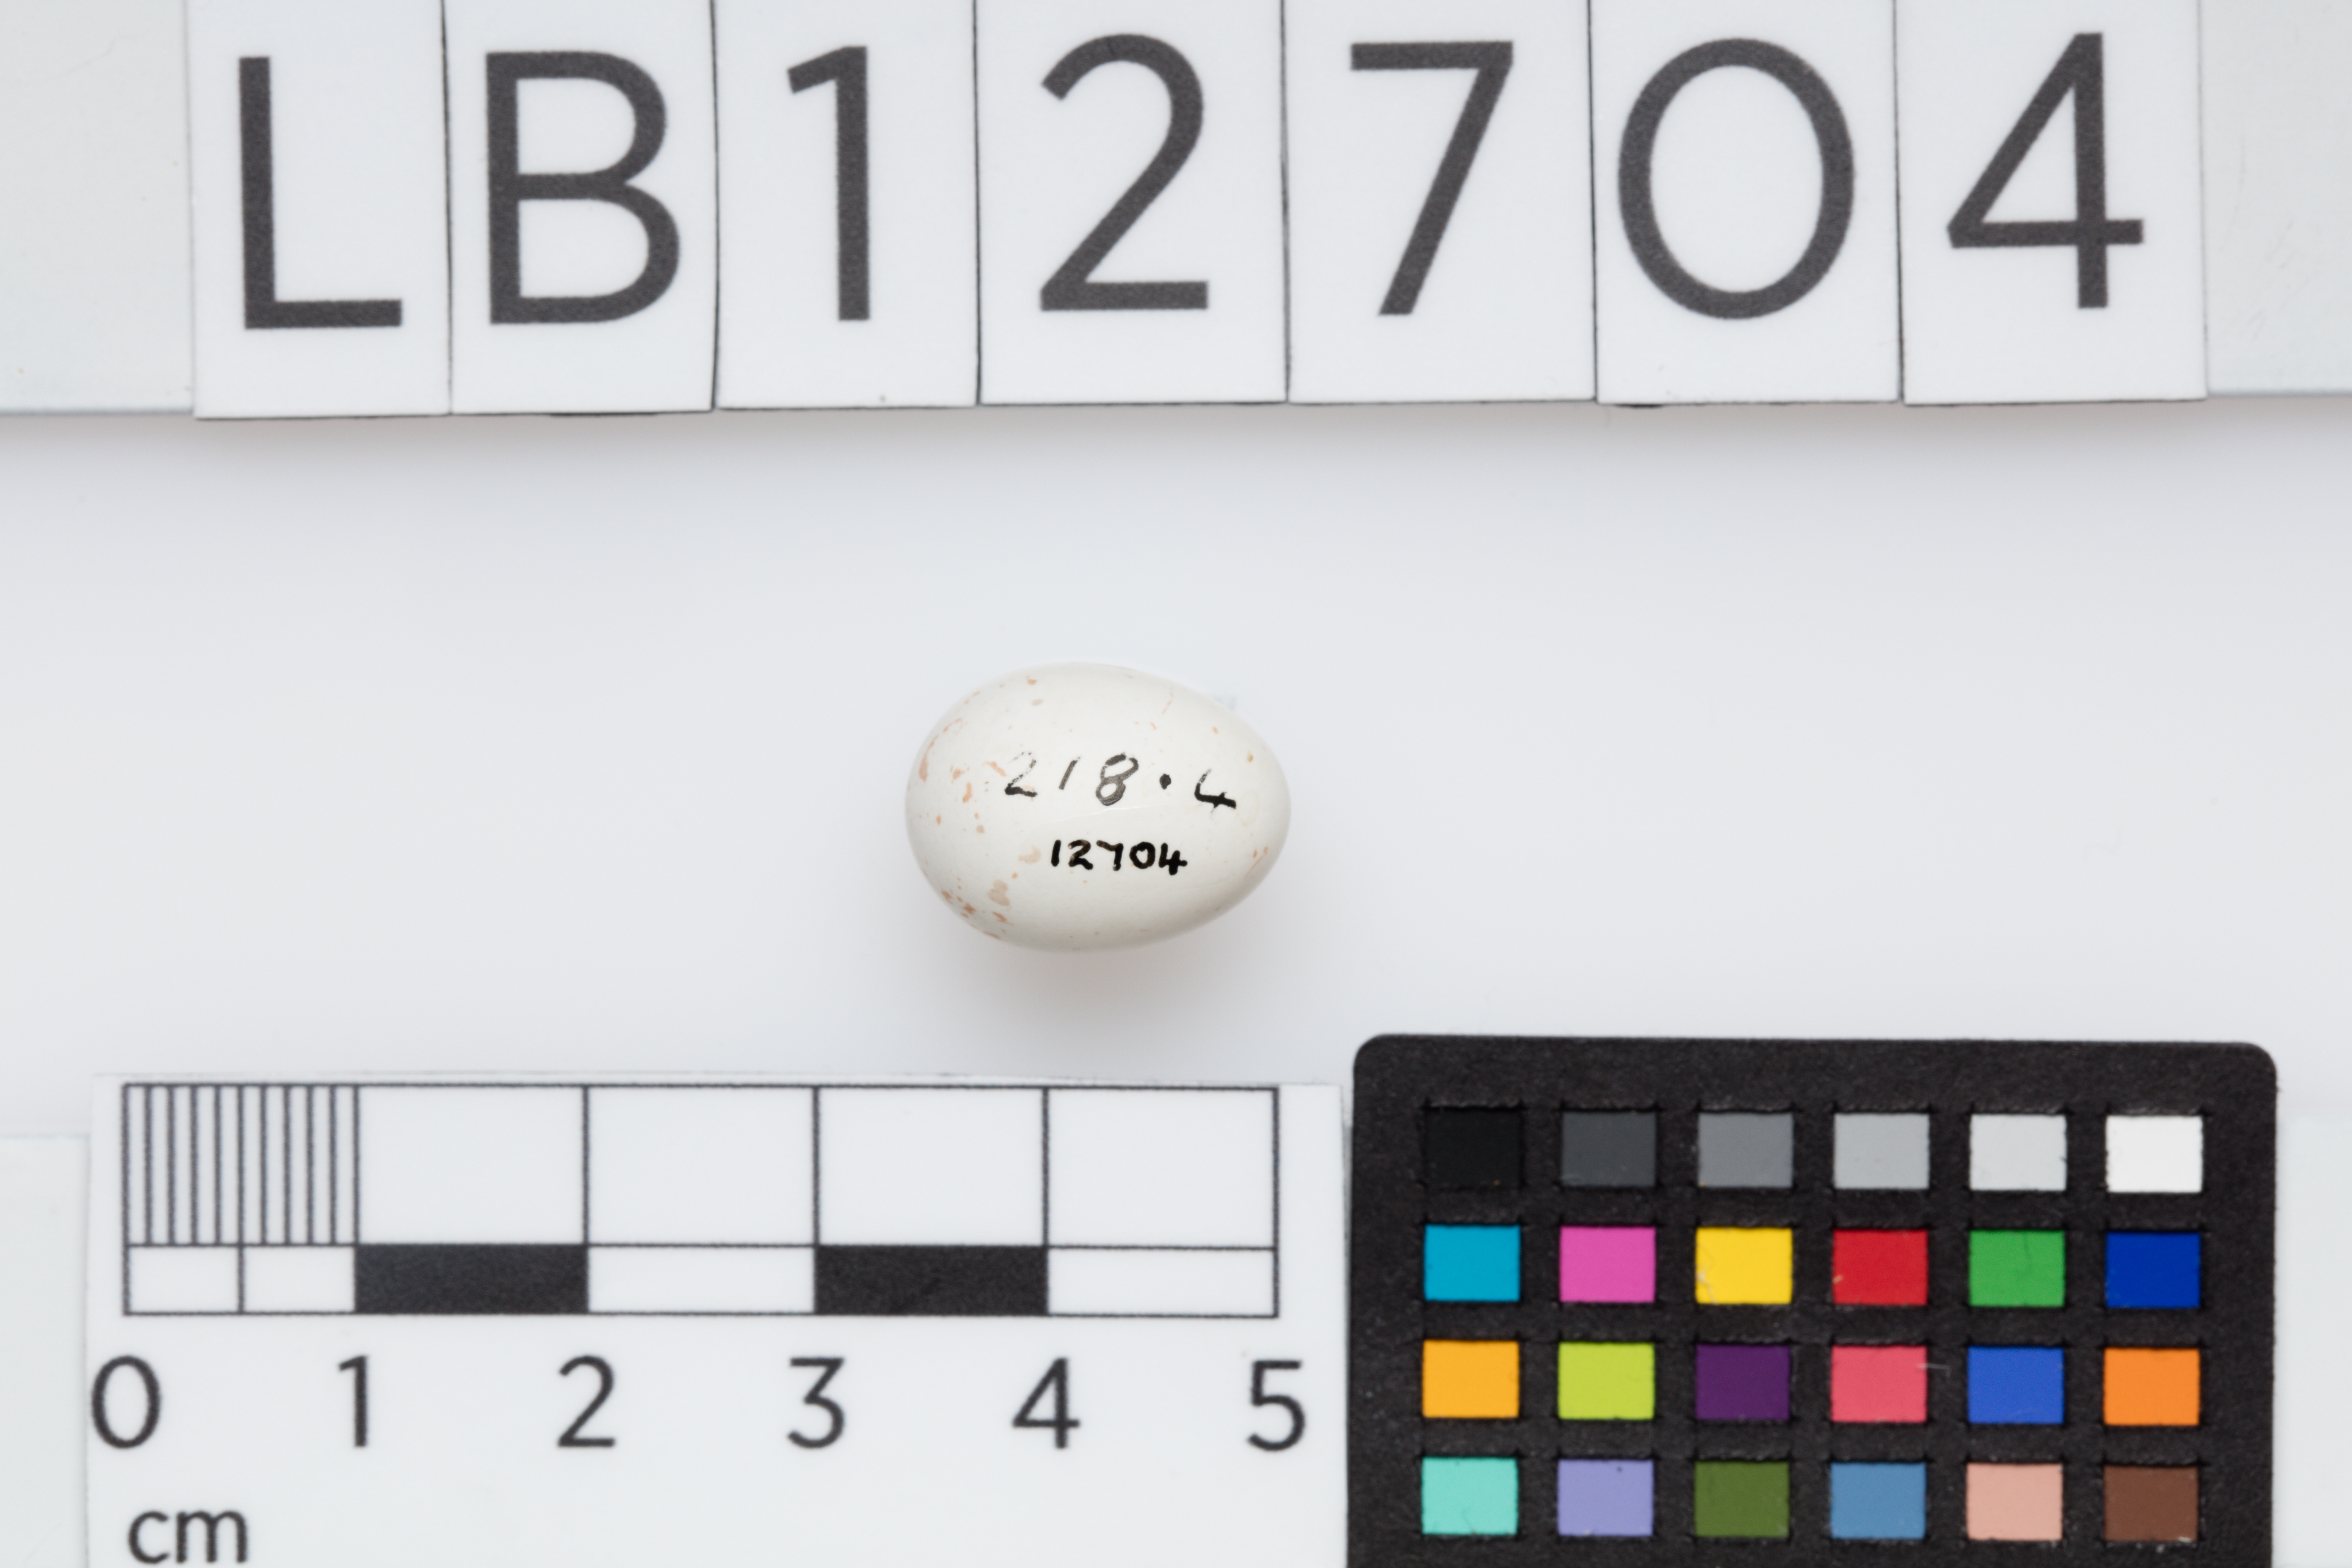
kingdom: Animalia
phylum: Chordata
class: Aves
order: Passeriformes
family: Certhiidae
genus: Certhia
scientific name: Certhia familiaris
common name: Eurasian treecreeper
